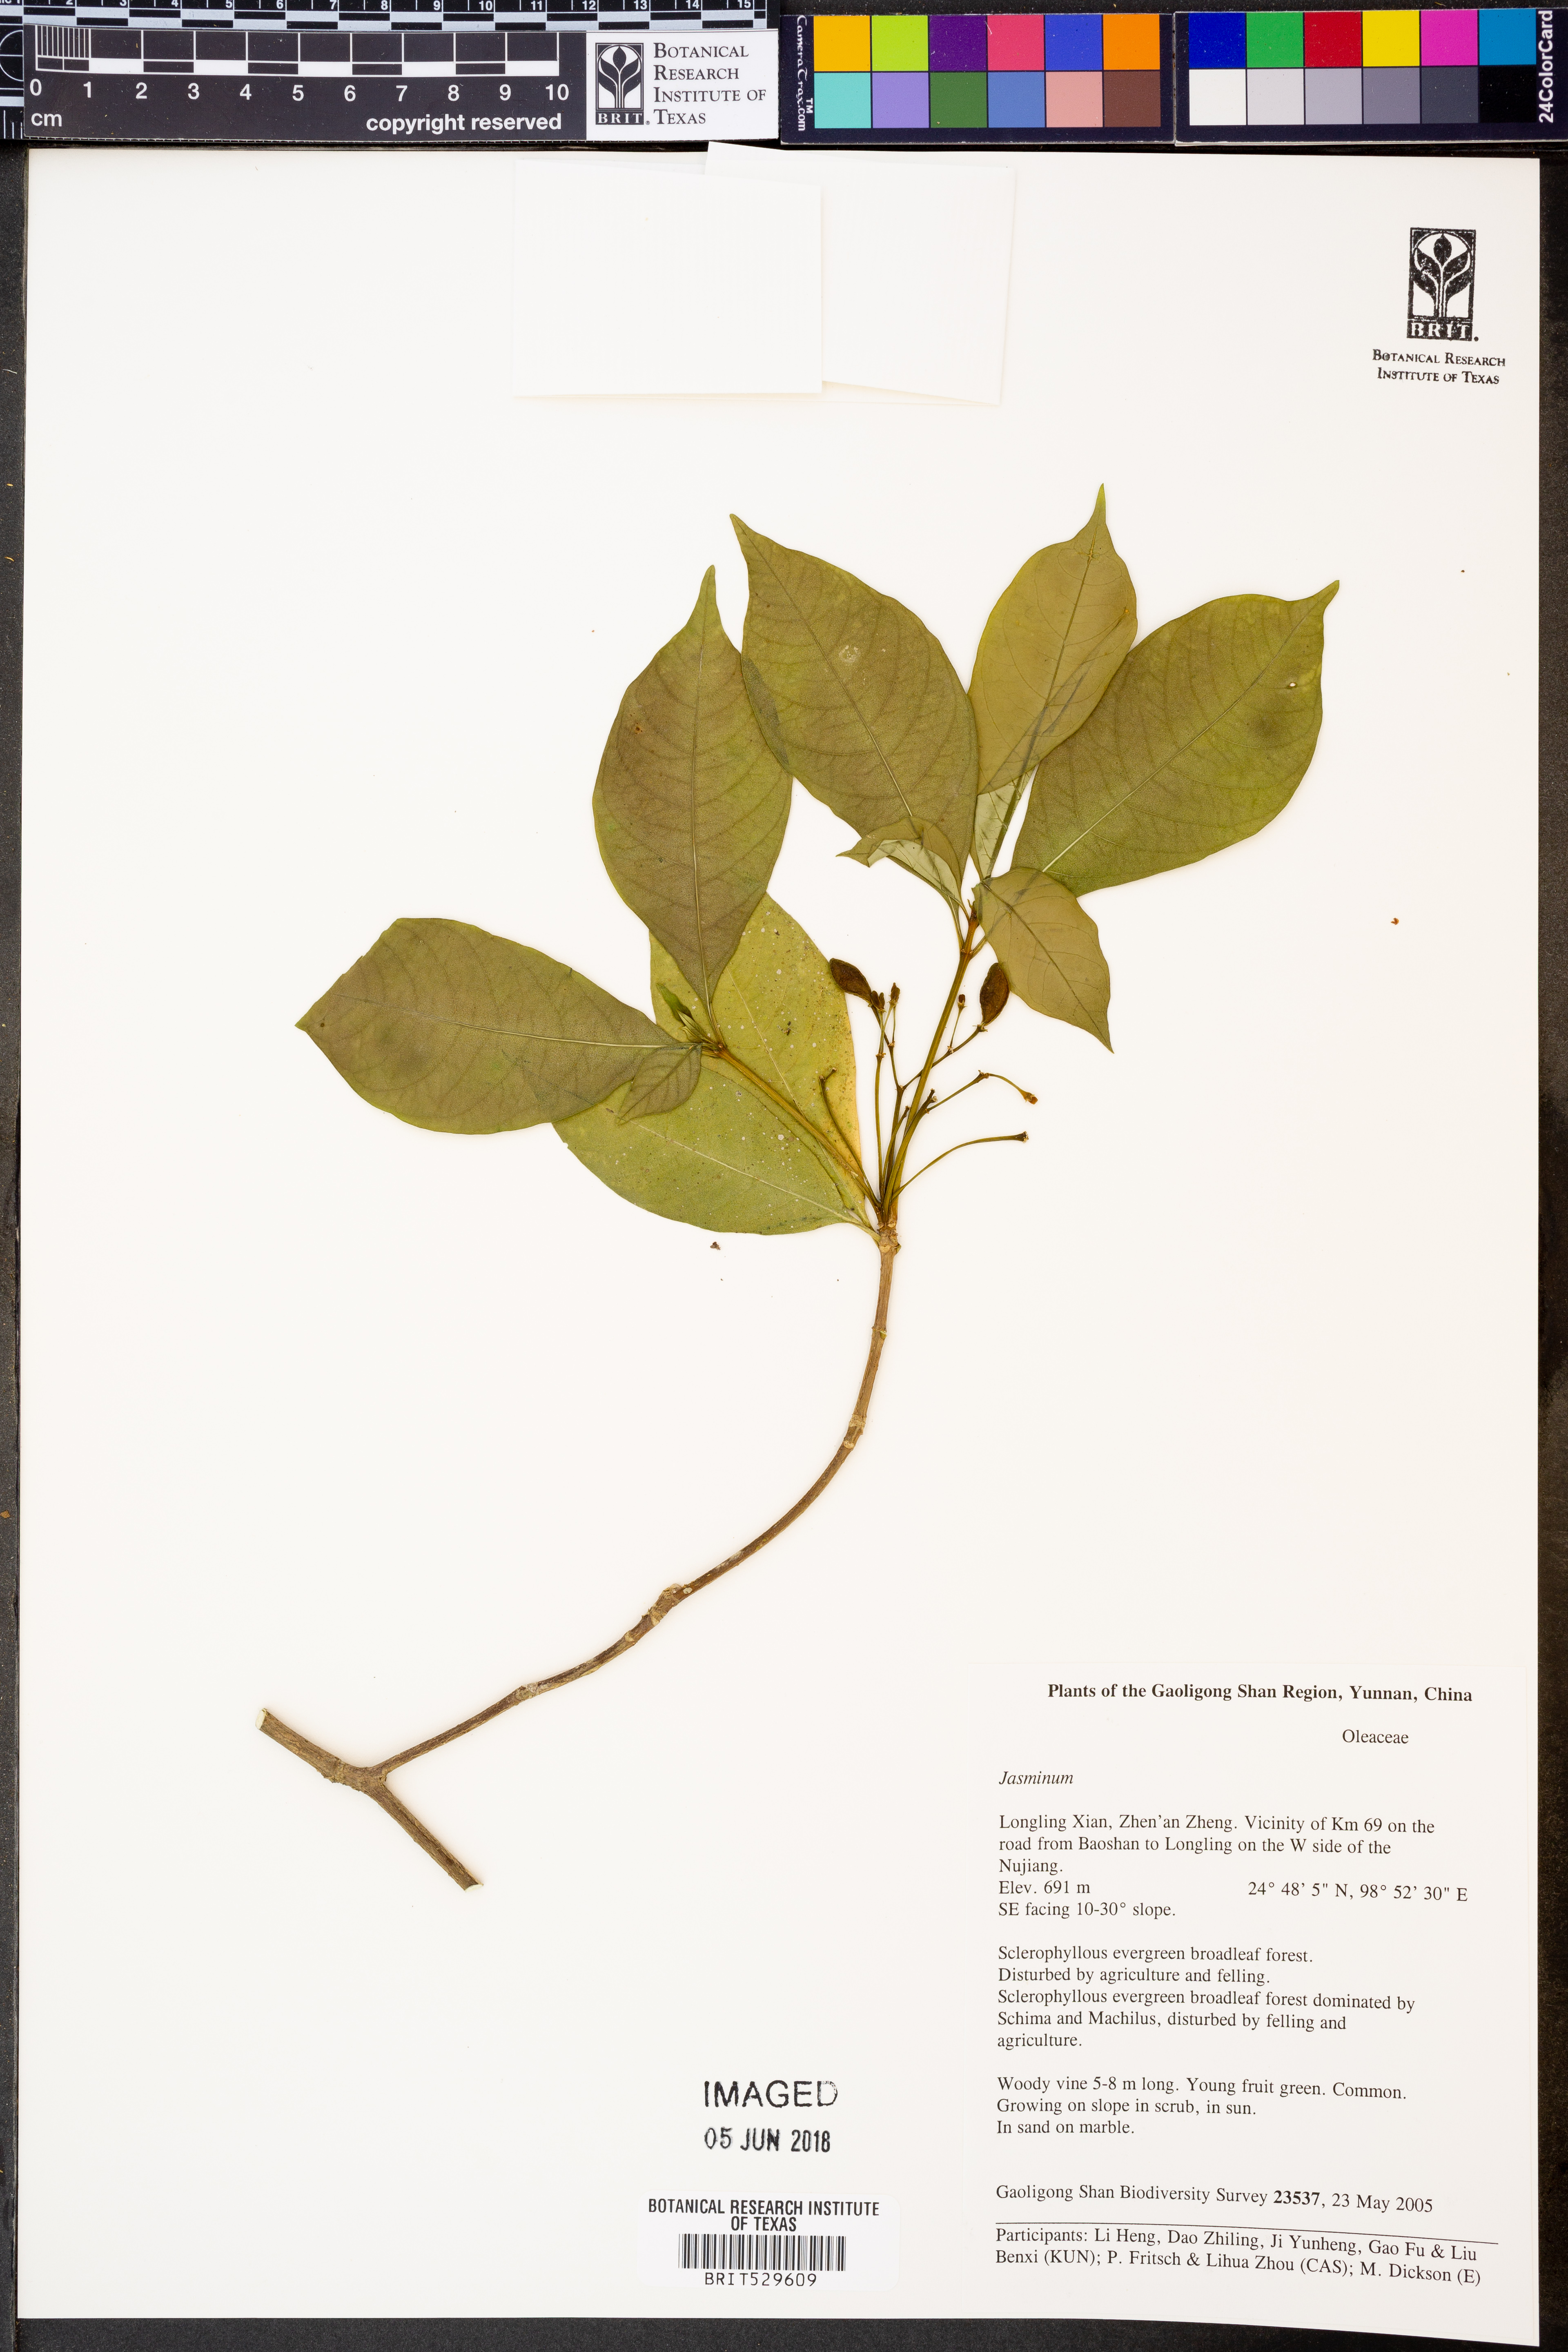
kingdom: Plantae
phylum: Tracheophyta
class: Magnoliopsida
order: Gentianales
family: Apocynaceae
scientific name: Apocynaceae
